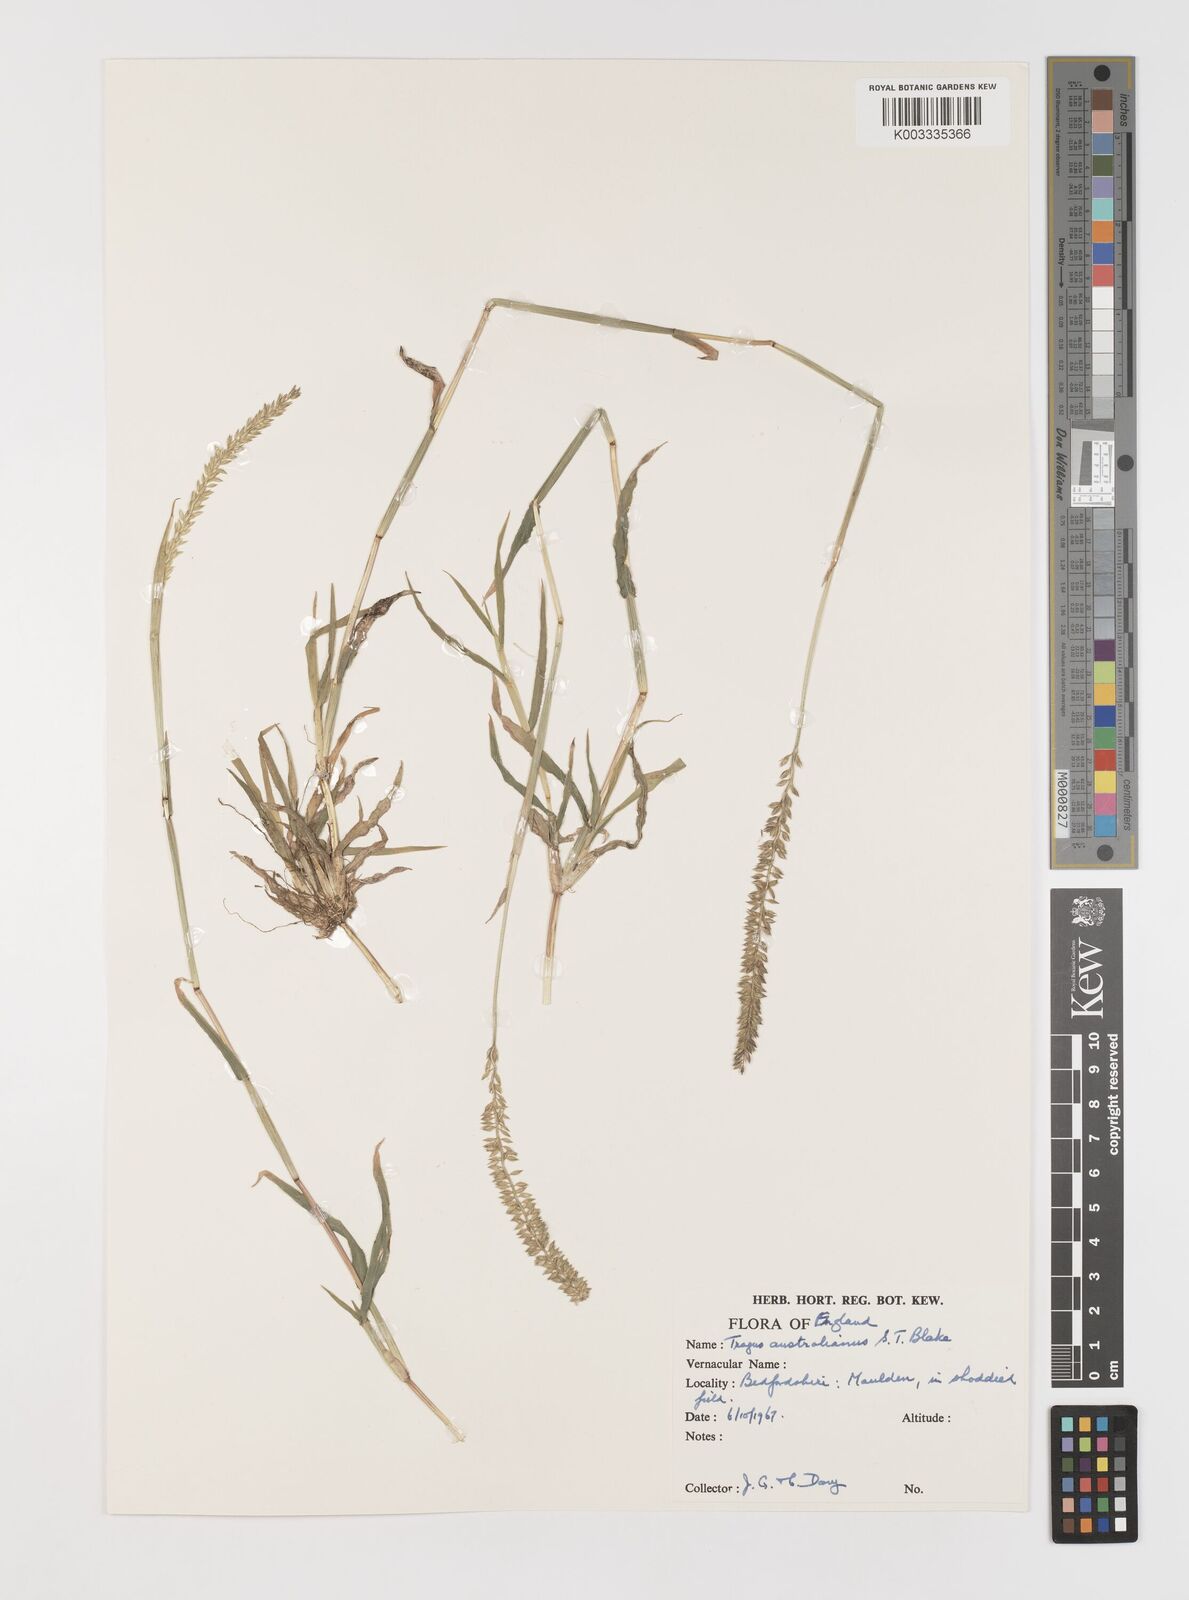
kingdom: Plantae
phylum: Tracheophyta
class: Liliopsida
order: Poales
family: Poaceae
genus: Tragus
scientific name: Tragus australianus
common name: Australian bur-grass
